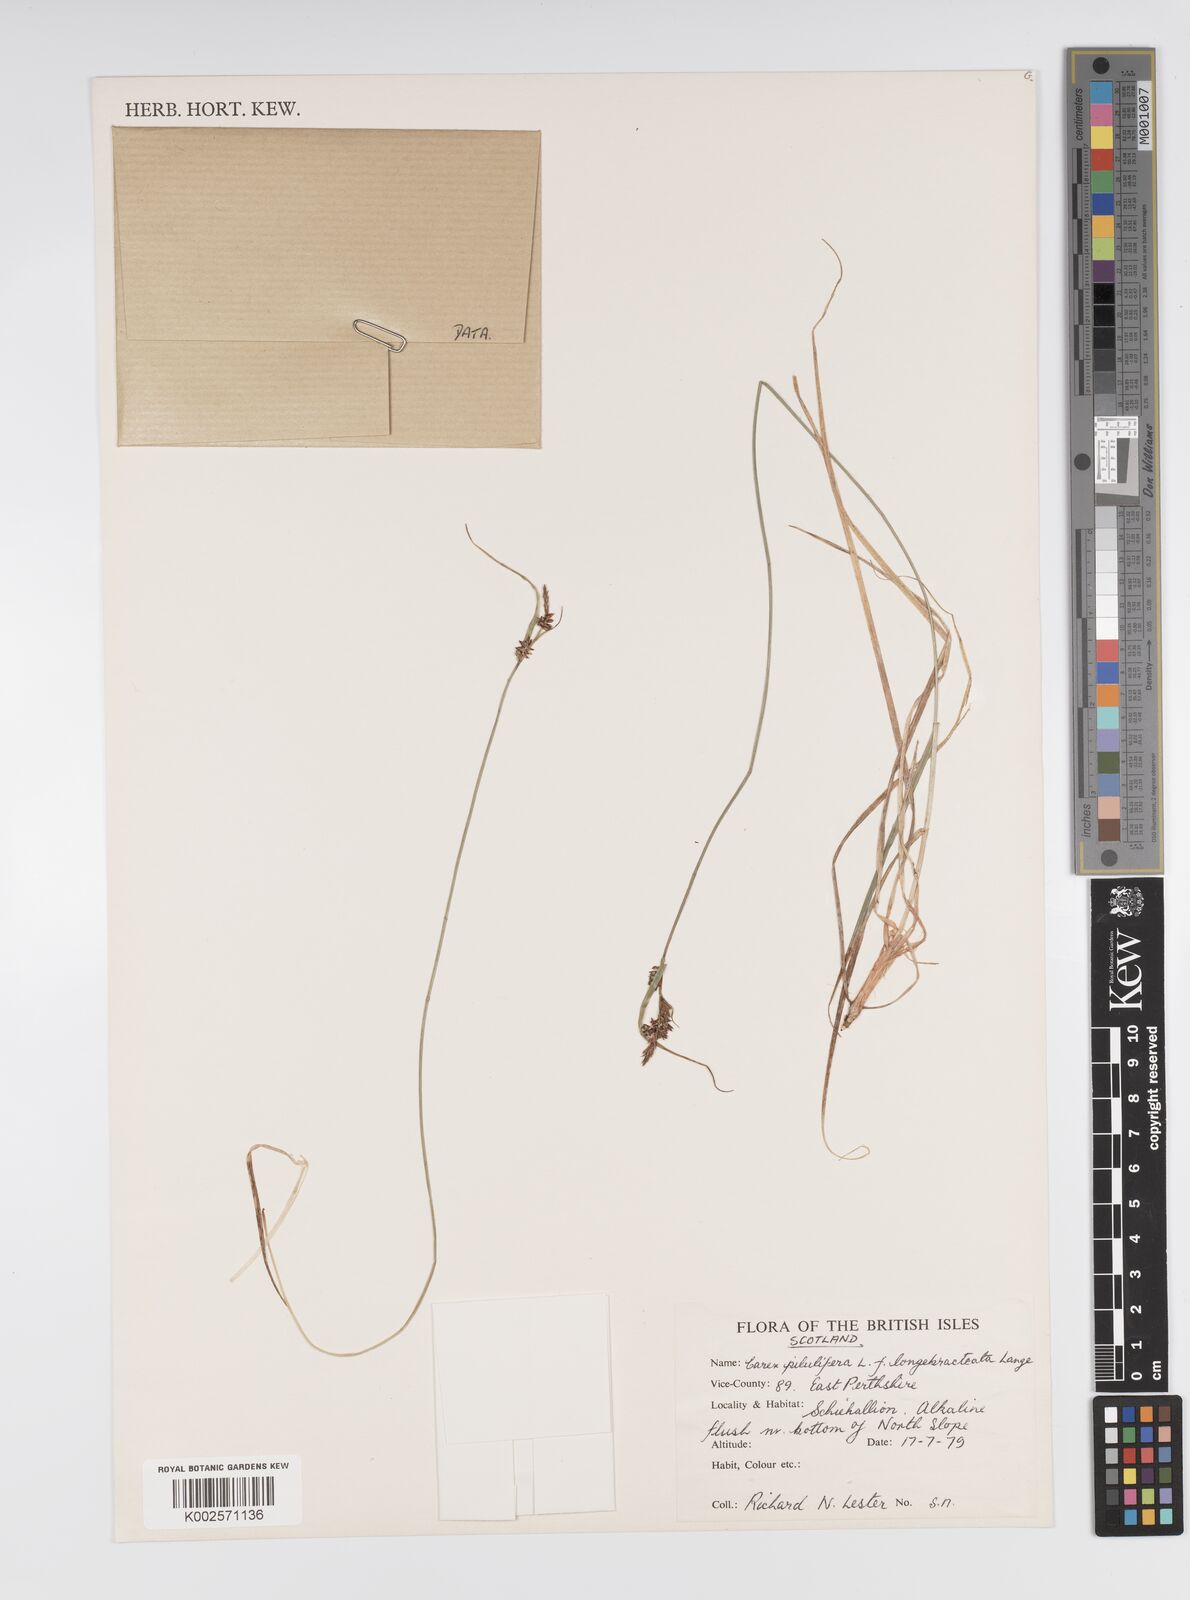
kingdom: Plantae
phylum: Tracheophyta
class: Liliopsida
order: Poales
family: Cyperaceae
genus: Carex
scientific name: Carex pilulifera
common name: Pill sedge
